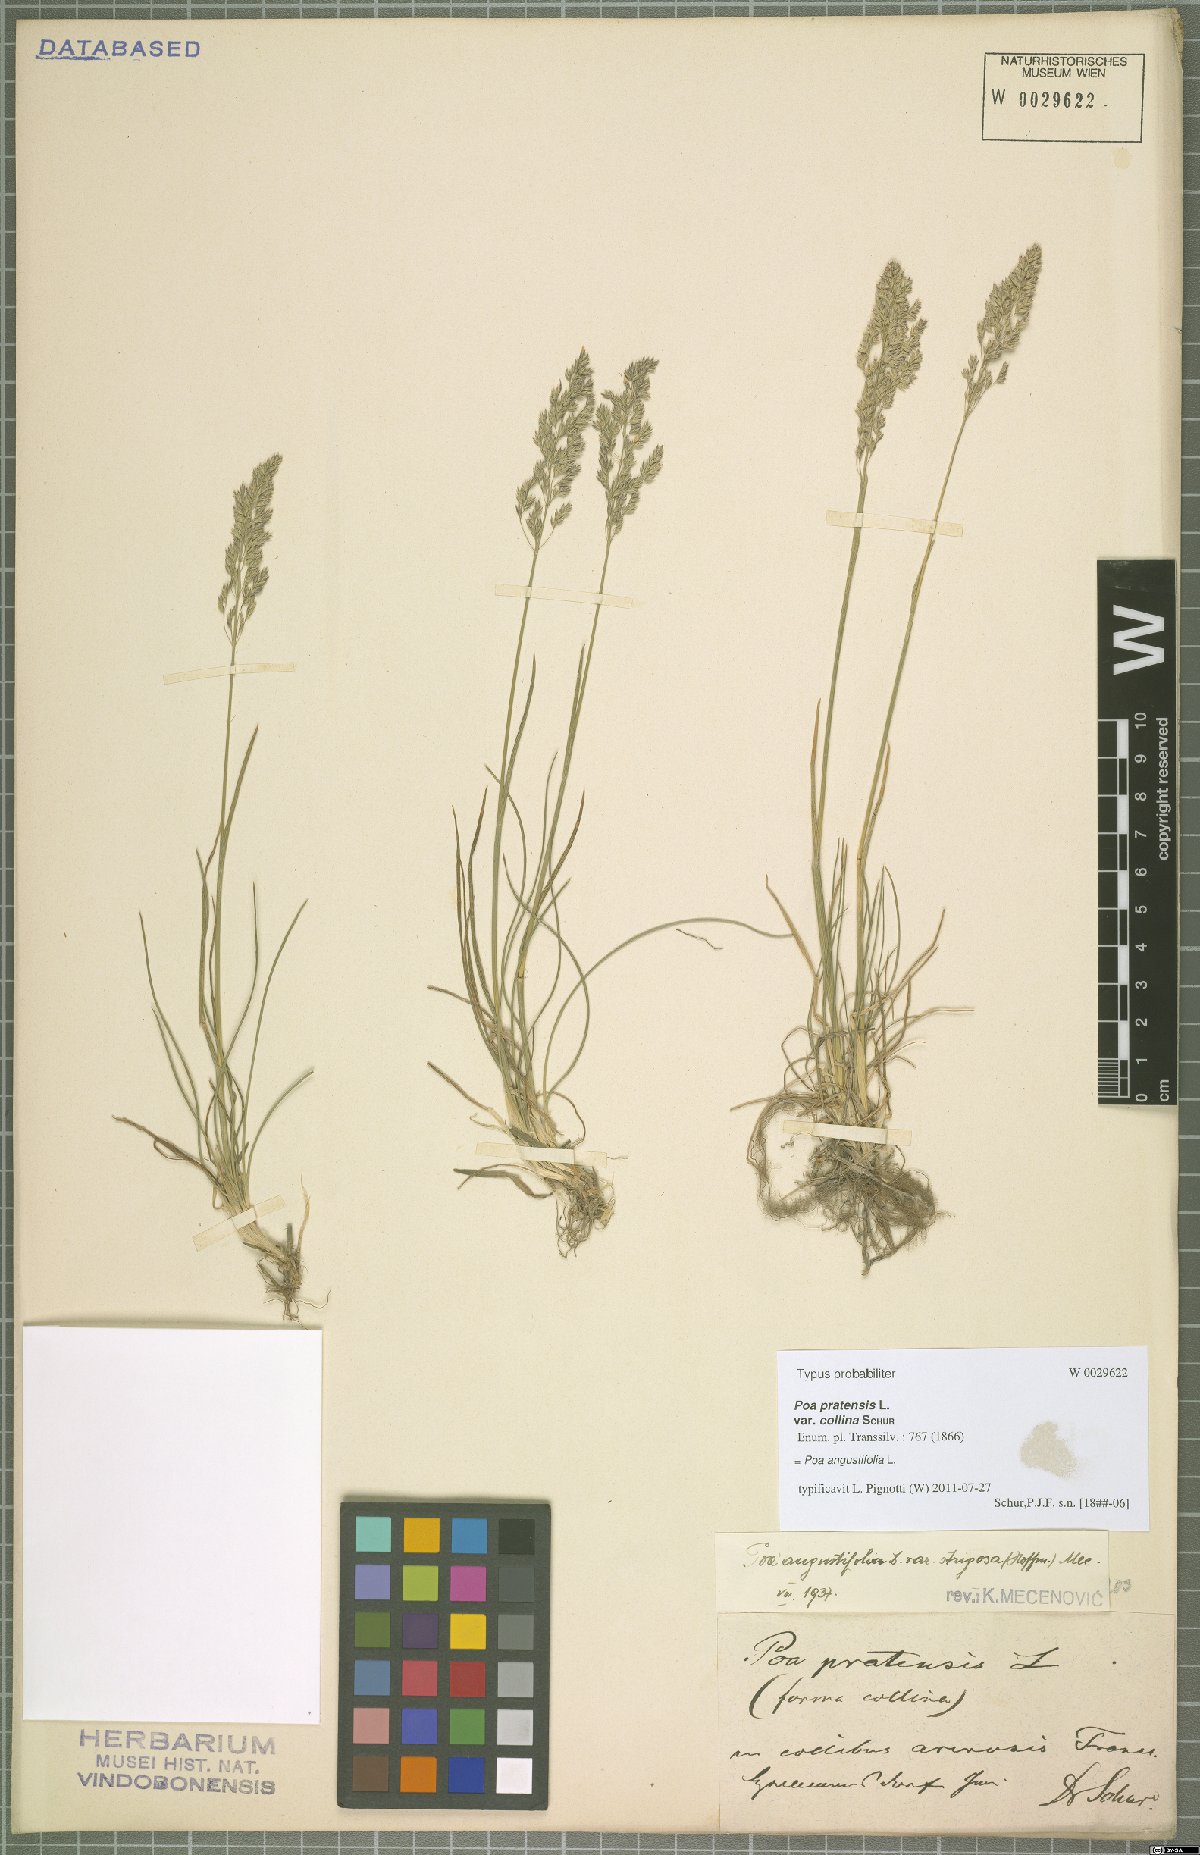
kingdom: Plantae
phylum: Tracheophyta
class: Liliopsida
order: Poales
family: Poaceae
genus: Poa
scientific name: Poa angustifolia
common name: Narrow-leaved meadow-grass
